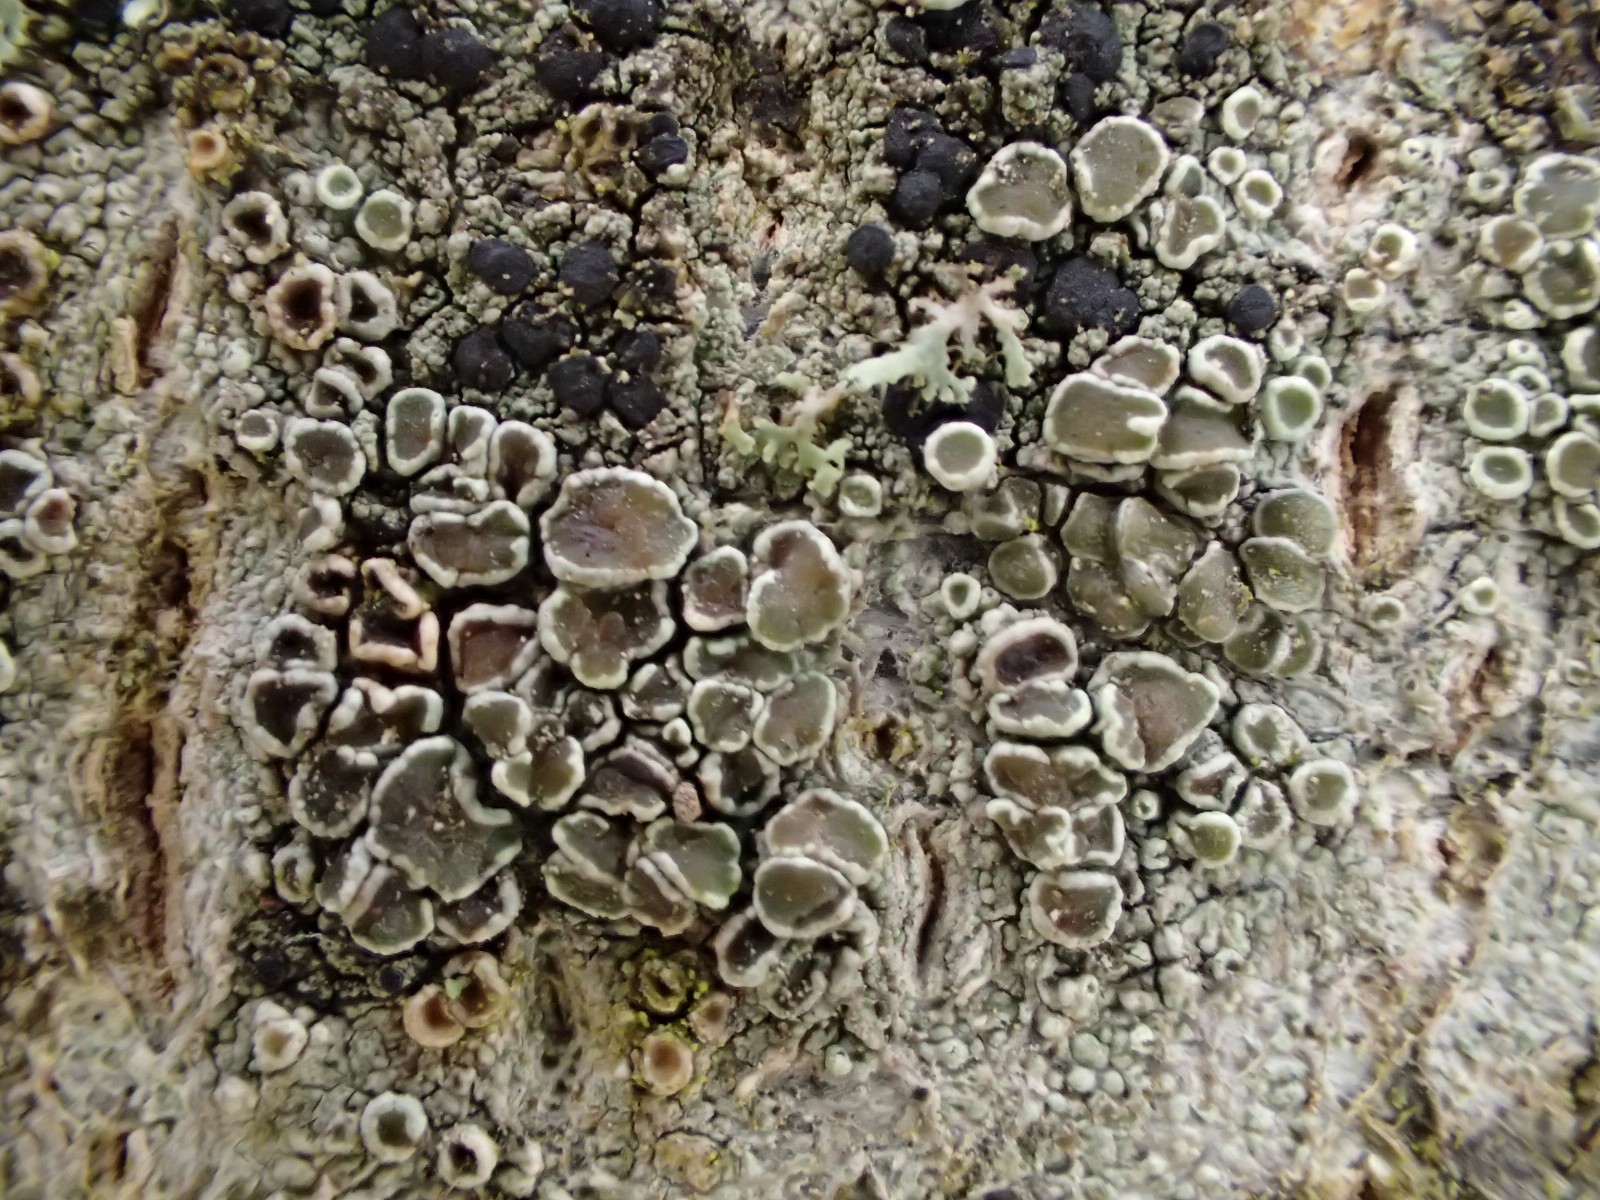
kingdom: Fungi
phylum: Ascomycota
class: Lecanoromycetes
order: Lecanorales
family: Lecanoraceae
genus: Lecanora
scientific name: Lecanora chlarotera
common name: brun kantskivelav
